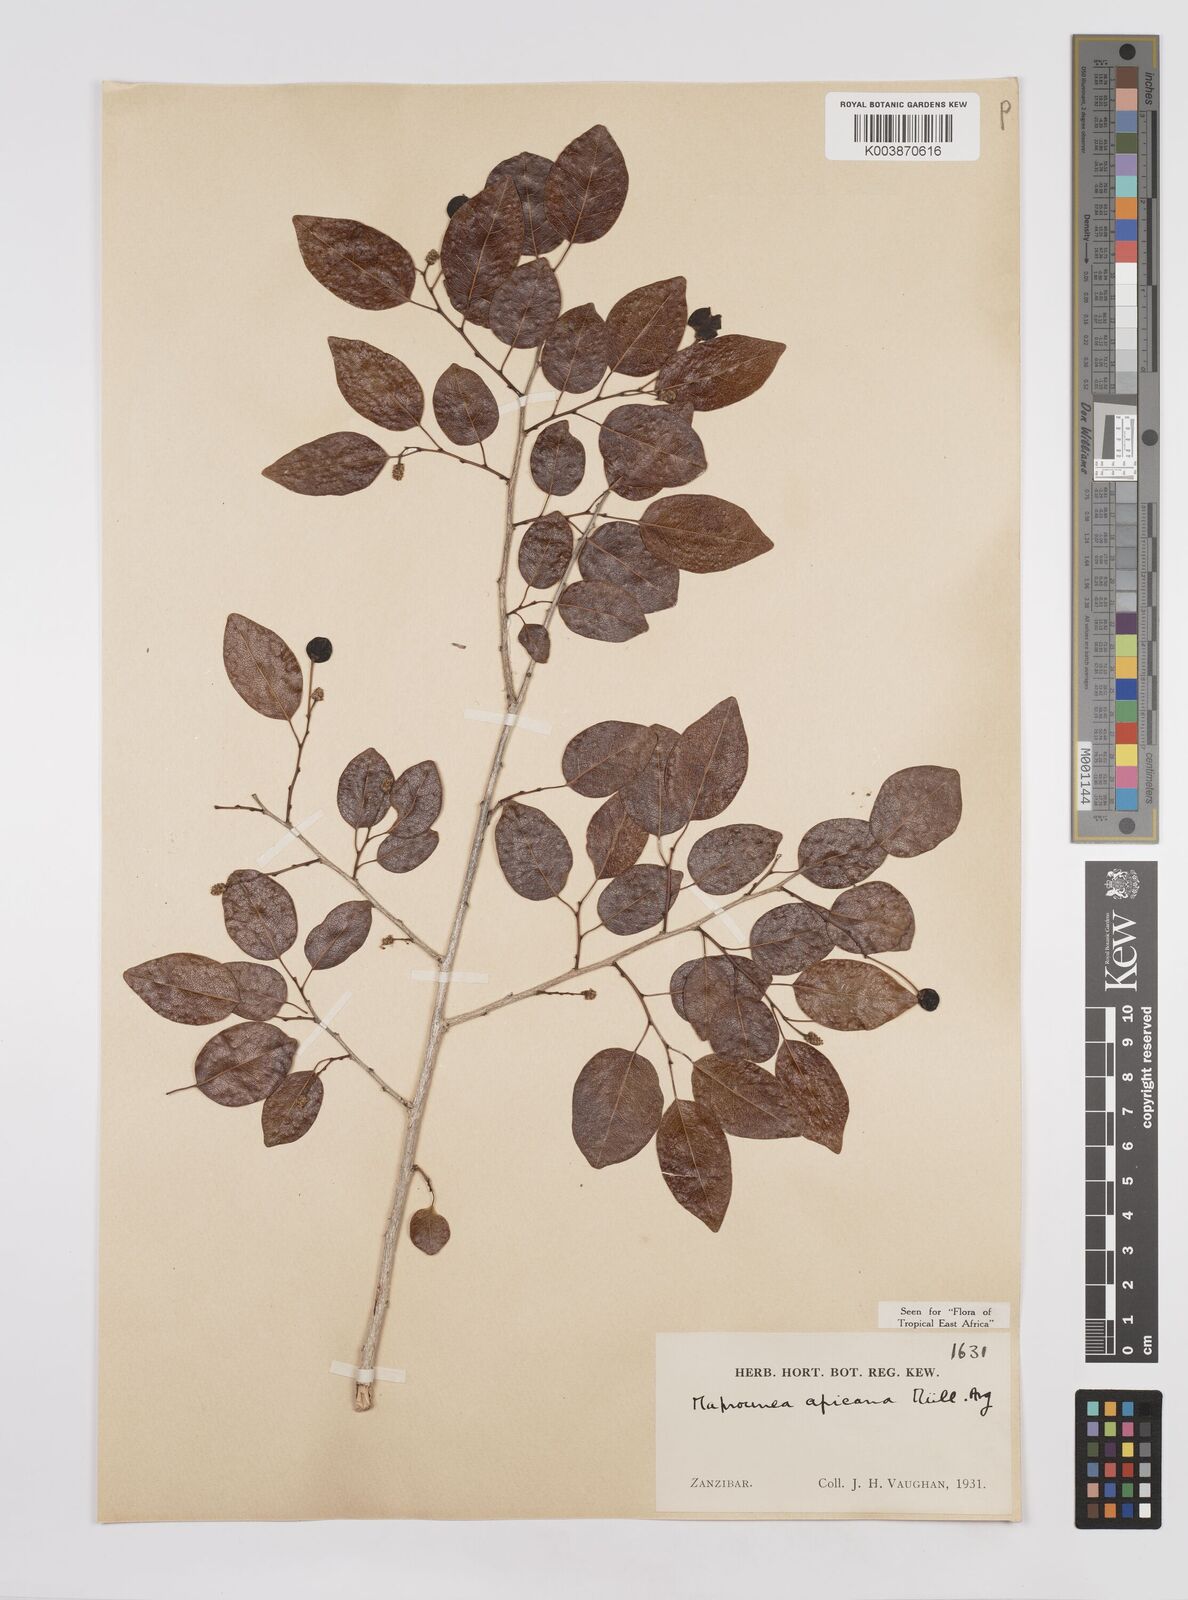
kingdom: Plantae
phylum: Tracheophyta
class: Magnoliopsida
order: Malpighiales
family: Euphorbiaceae
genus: Maprounea
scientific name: Maprounea africana
